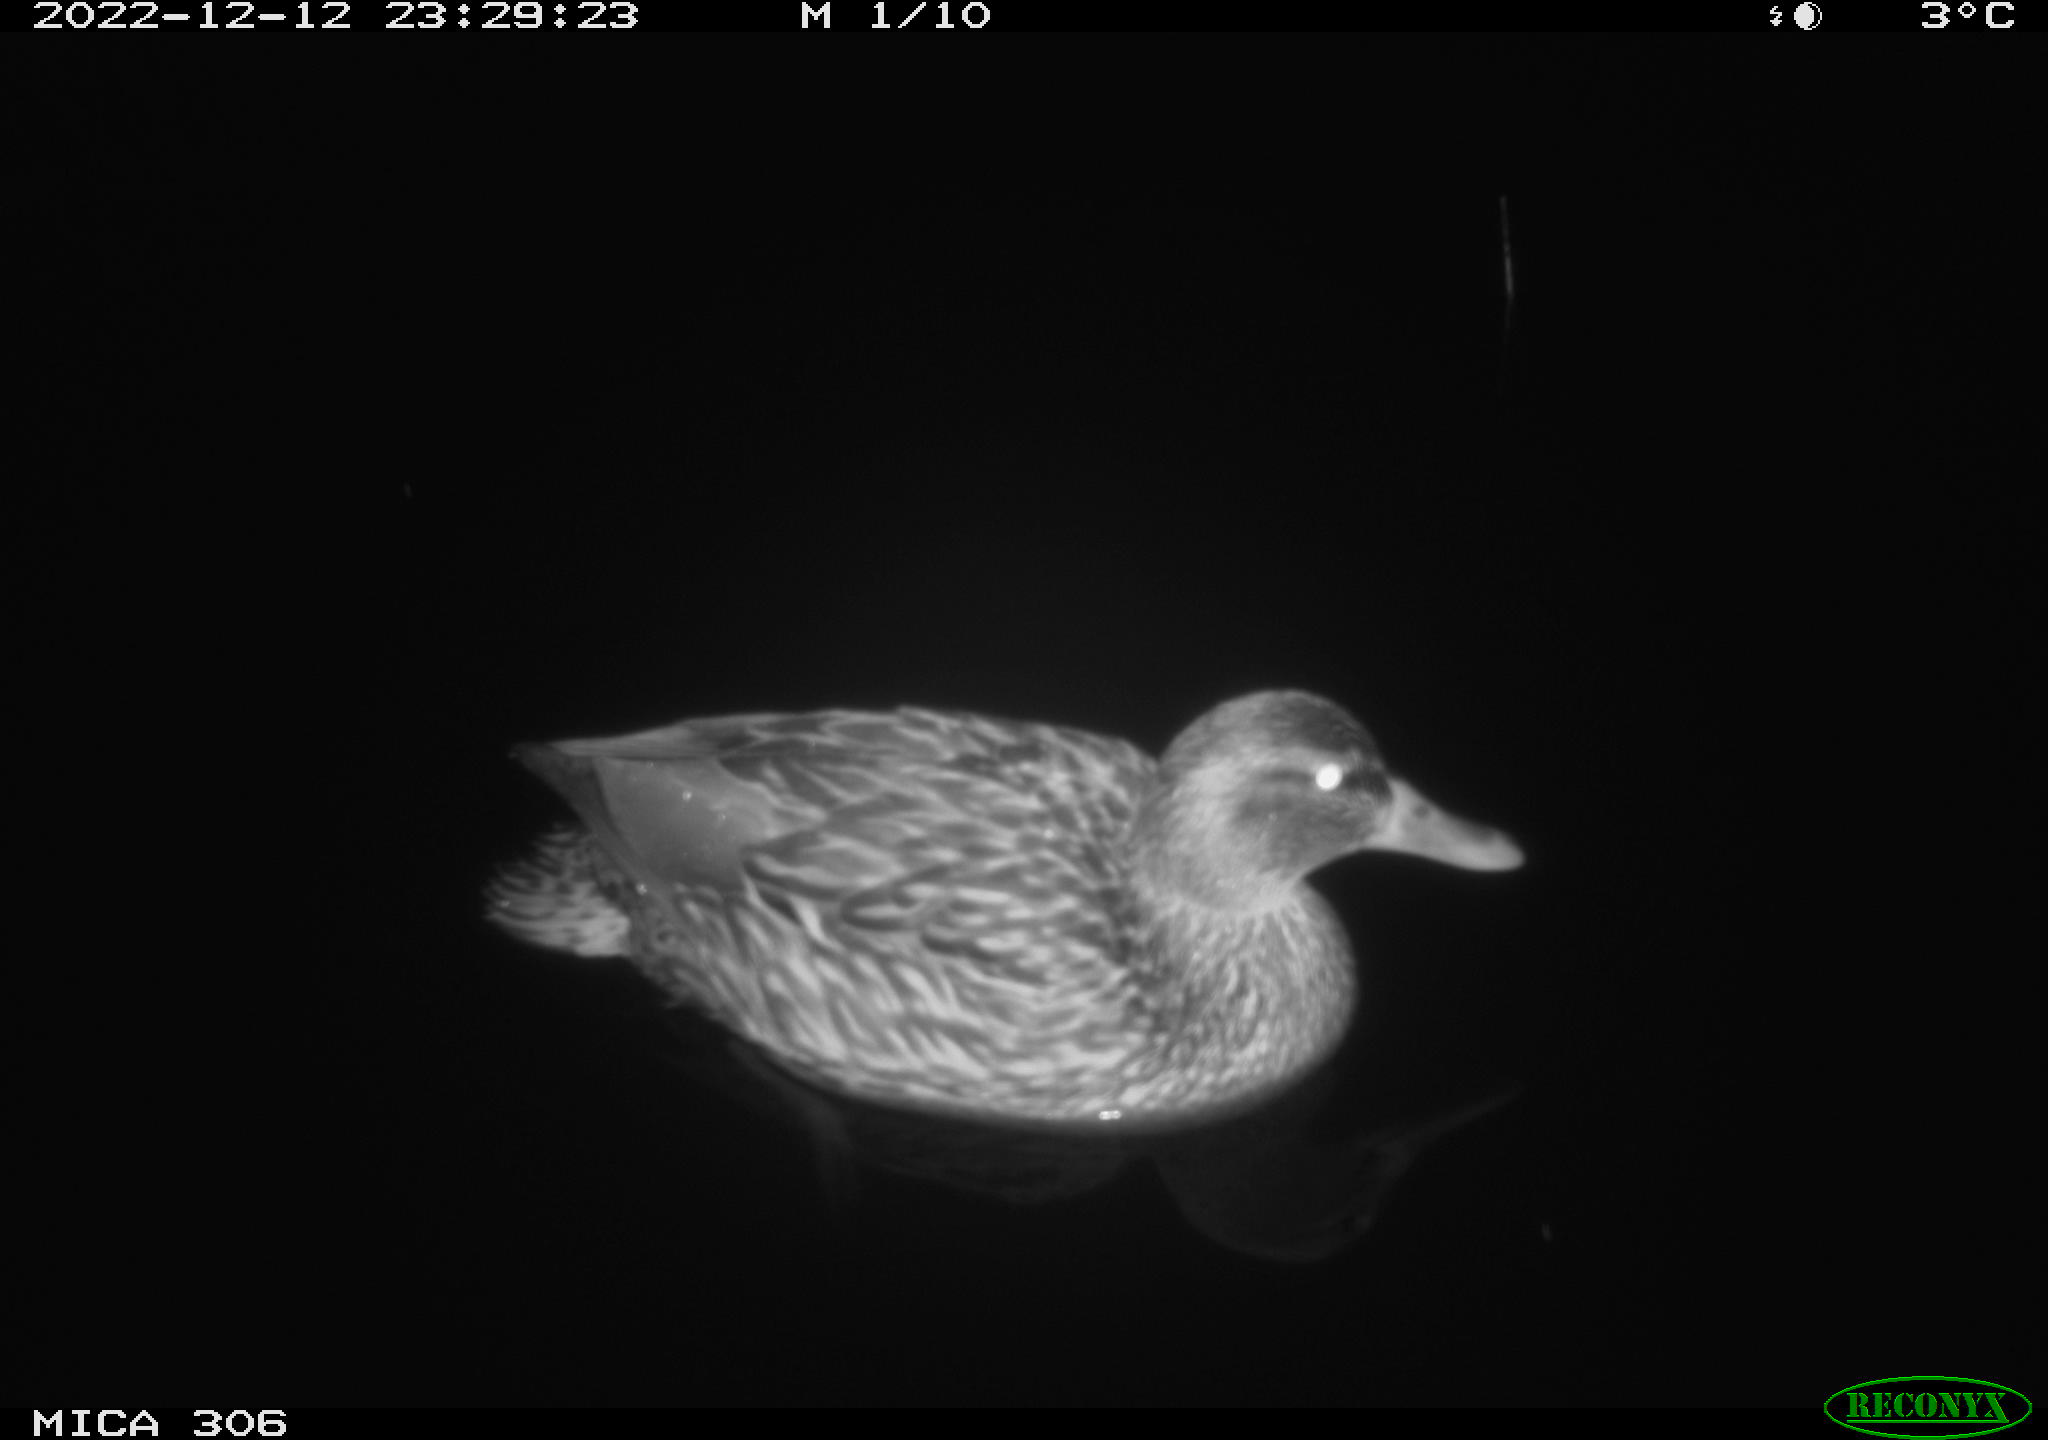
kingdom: Animalia
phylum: Chordata
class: Aves
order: Anseriformes
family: Anatidae
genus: Anas
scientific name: Anas
